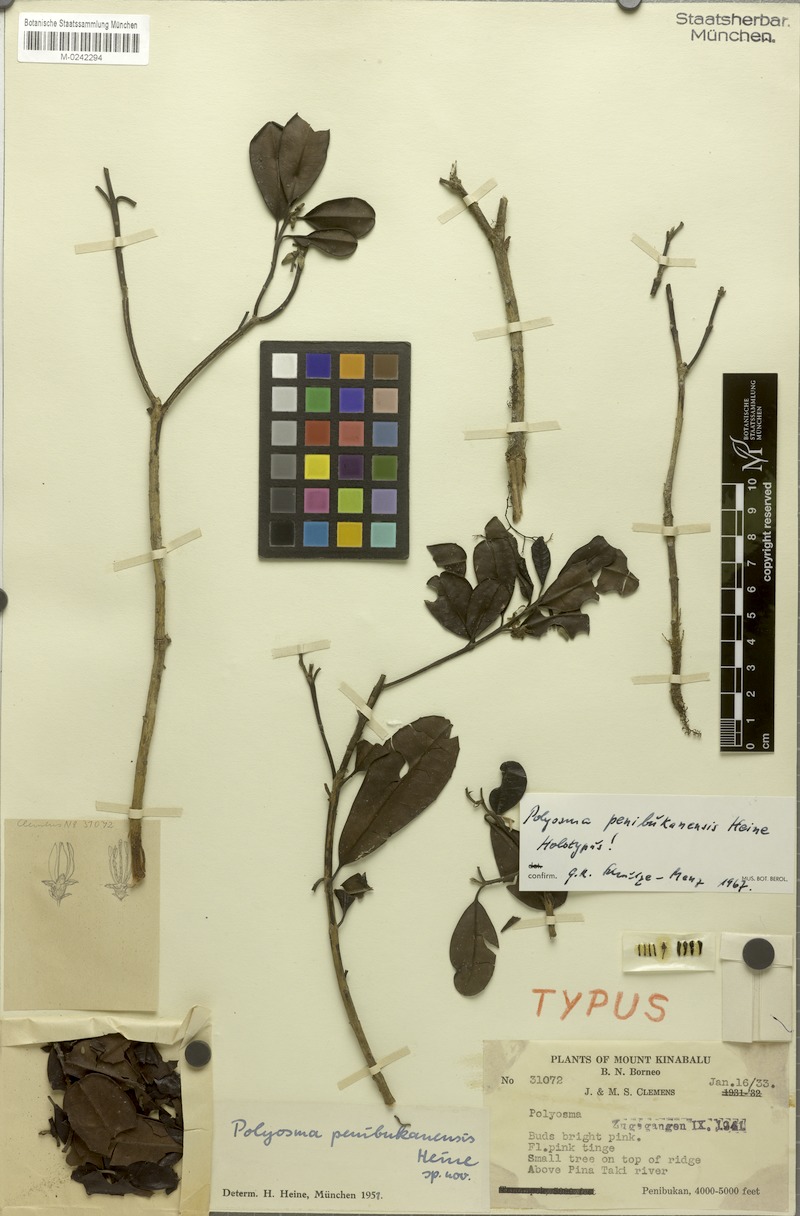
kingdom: Plantae
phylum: Tracheophyta
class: Magnoliopsida
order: Escalloniales
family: Escalloniaceae
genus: Polyosma
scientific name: Polyosma penibukanensis
